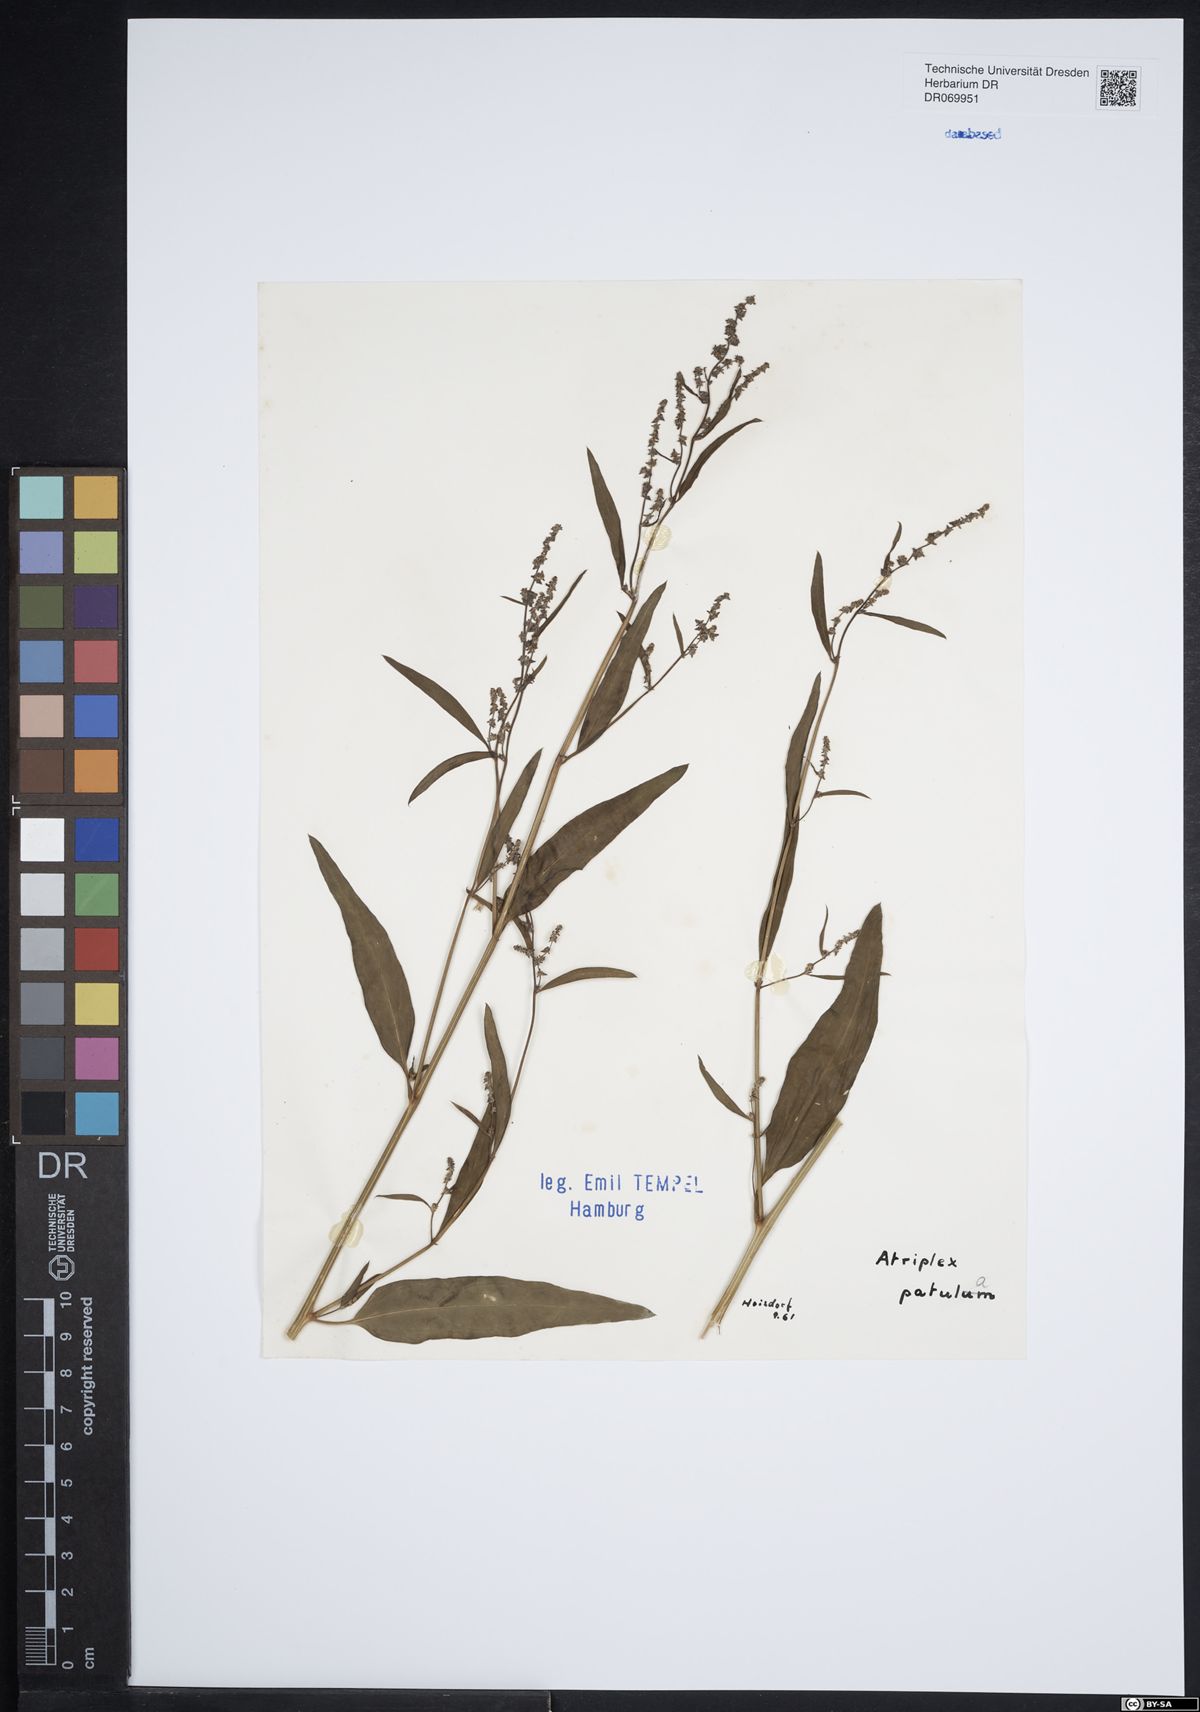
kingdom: Plantae
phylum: Tracheophyta
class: Magnoliopsida
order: Caryophyllales
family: Amaranthaceae
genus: Atriplex
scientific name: Atriplex patula
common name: Common orache
